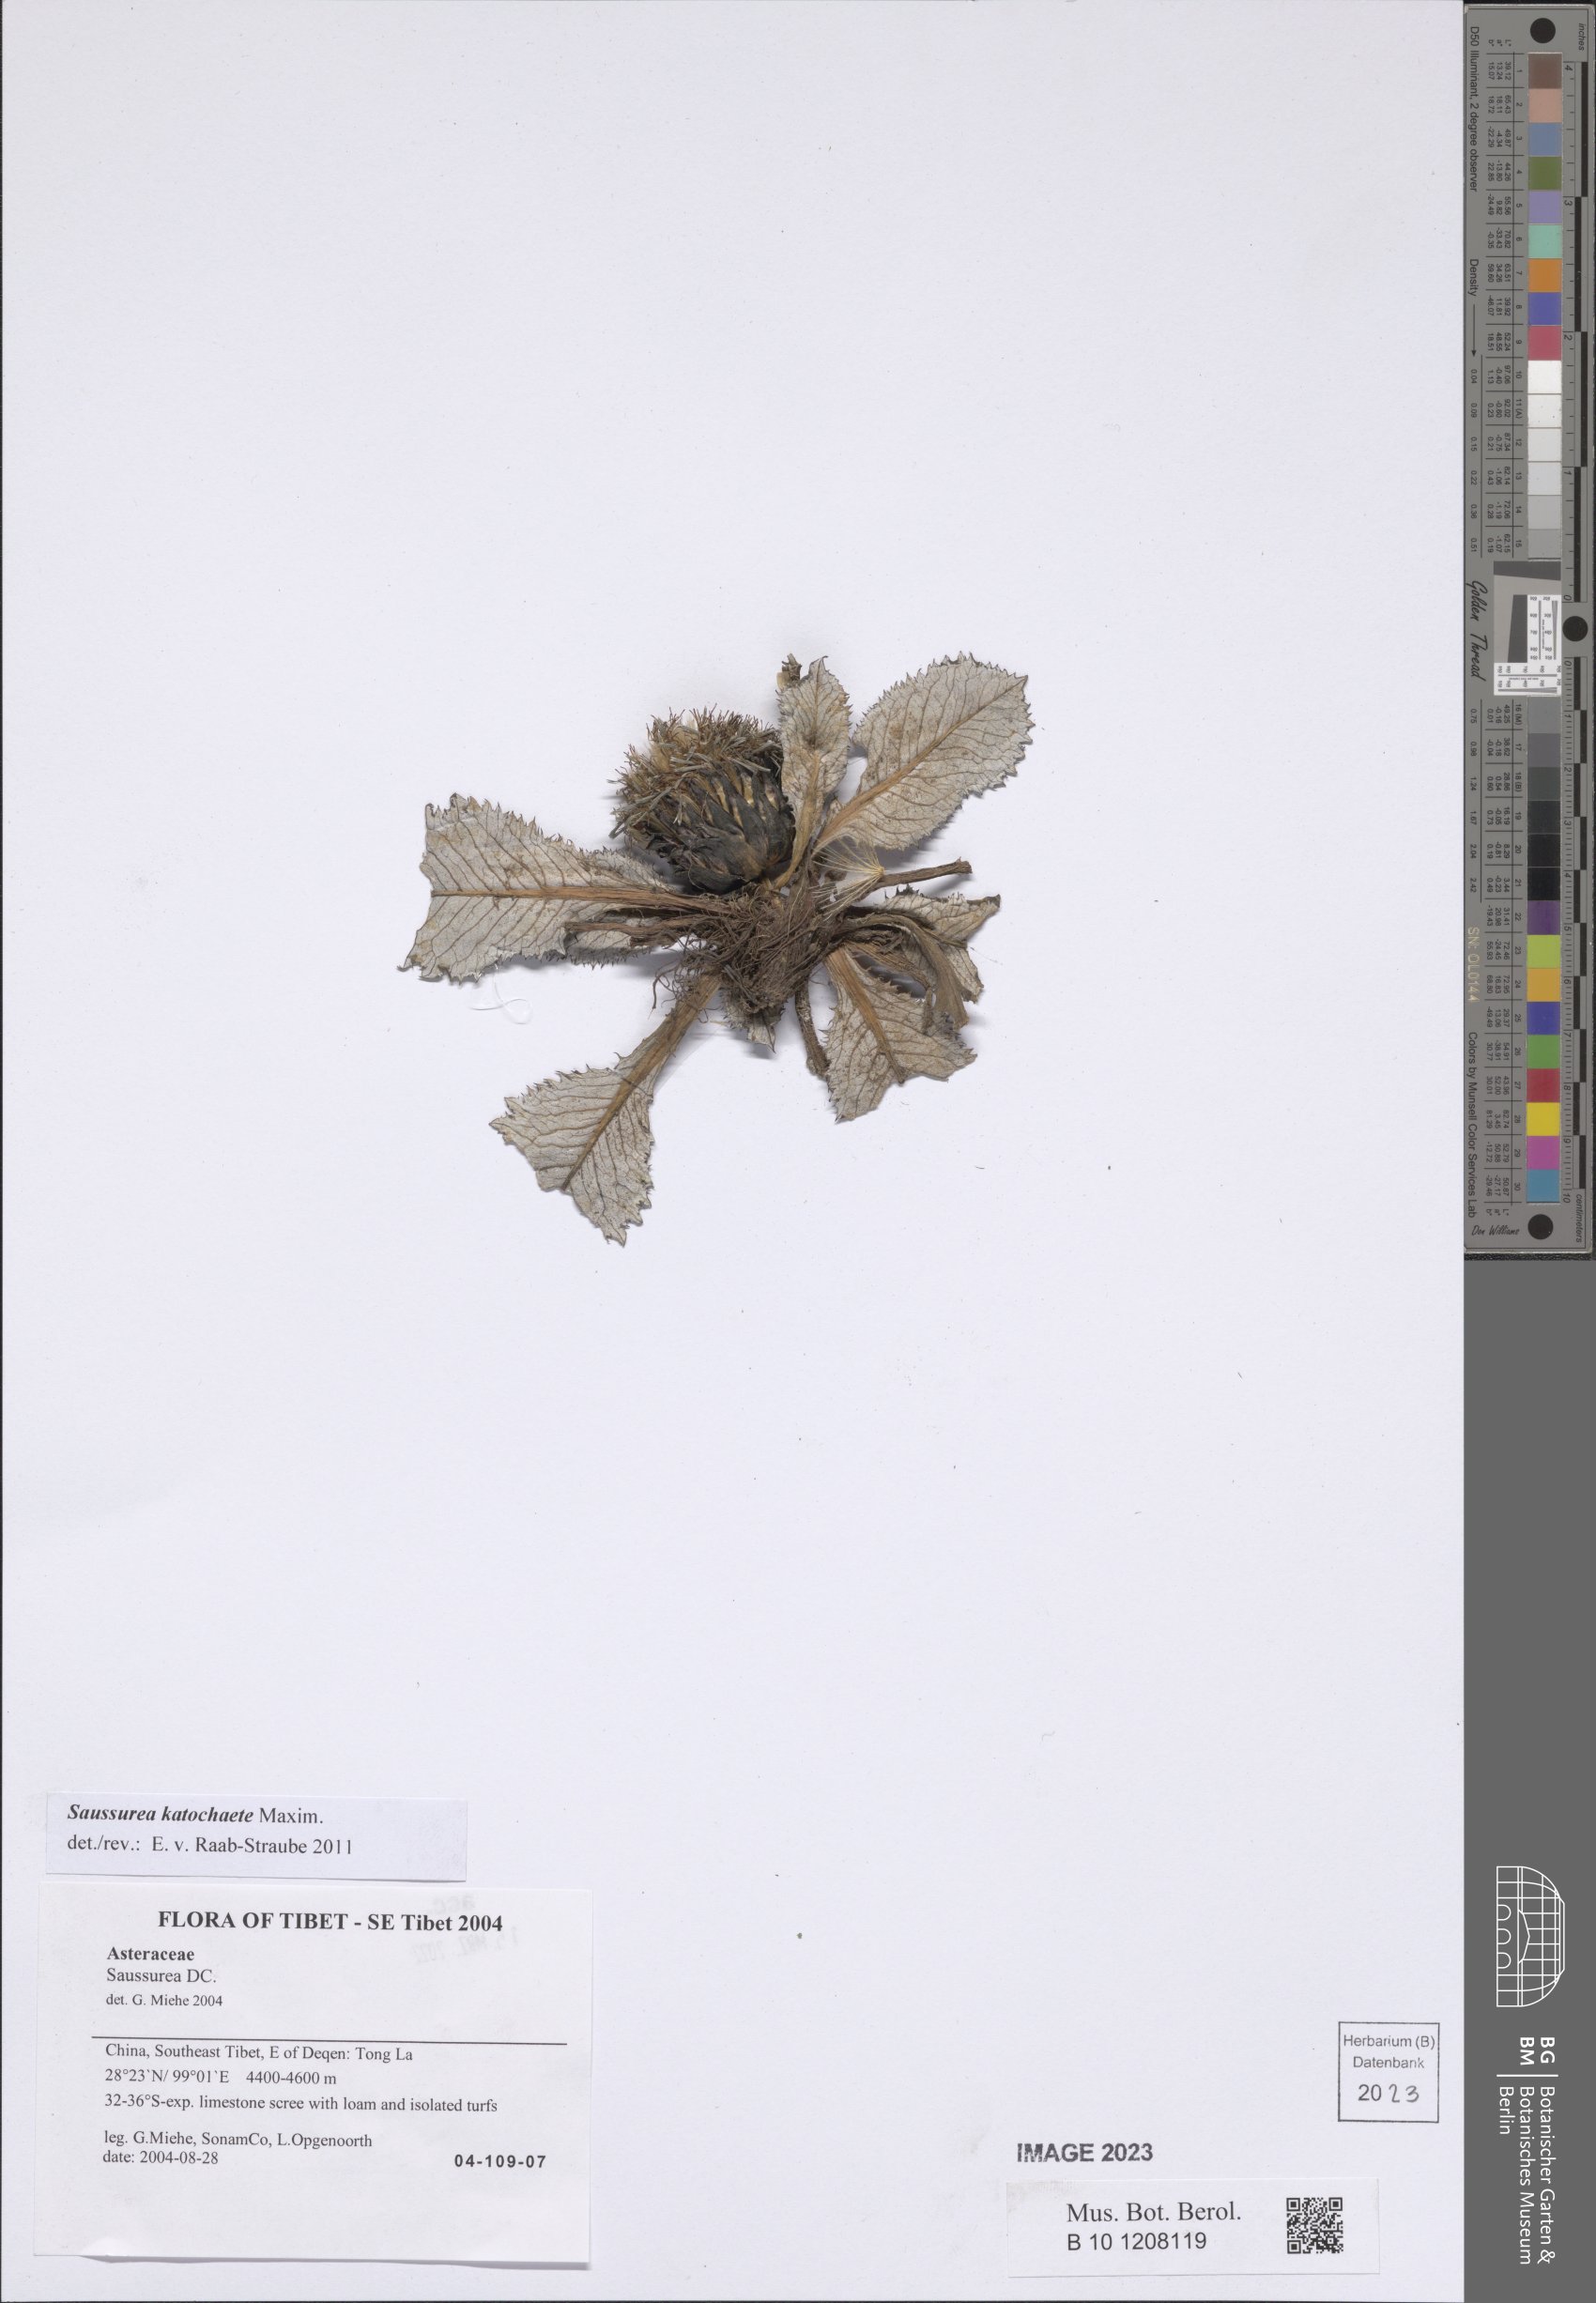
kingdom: Plantae
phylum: Tracheophyta
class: Magnoliopsida
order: Asterales
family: Asteraceae
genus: Saussurea
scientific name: Saussurea katochaete
